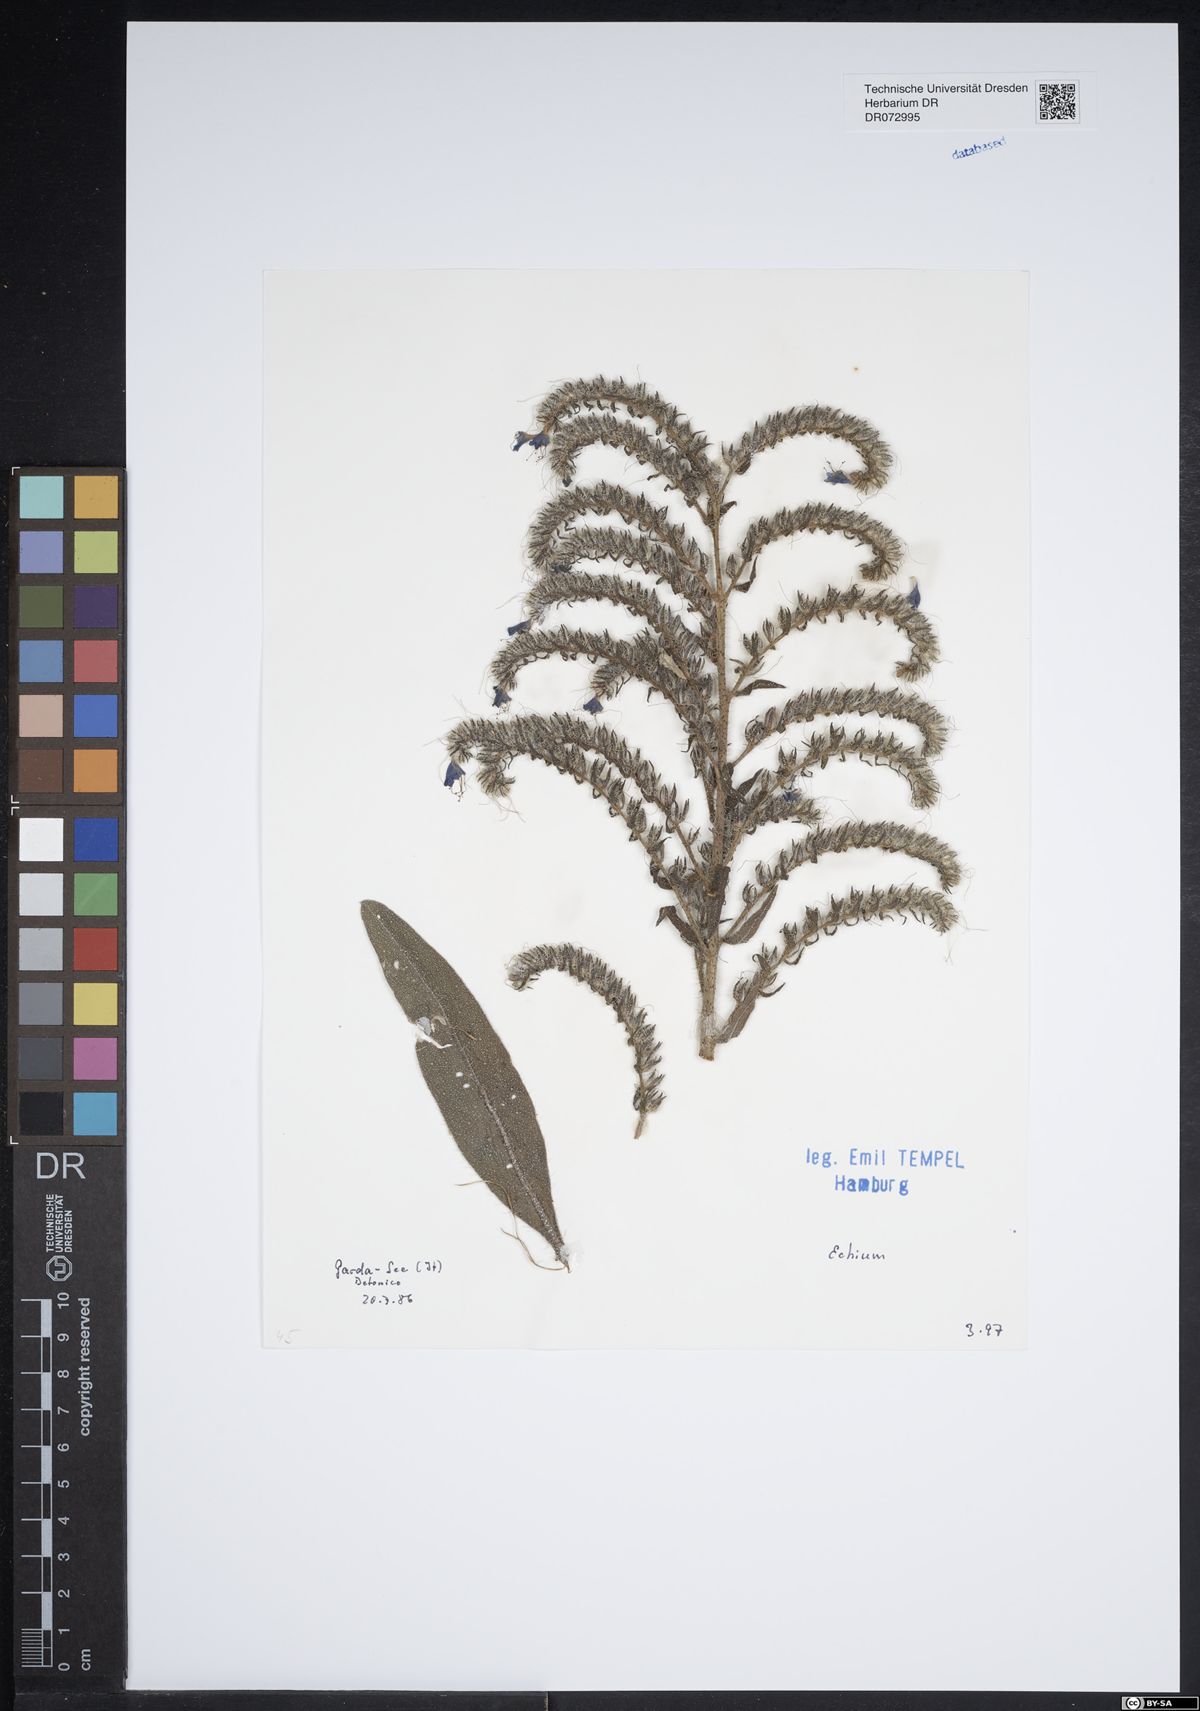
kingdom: Plantae
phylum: Tracheophyta
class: Magnoliopsida
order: Boraginales
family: Boraginaceae
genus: Echium
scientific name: Echium
